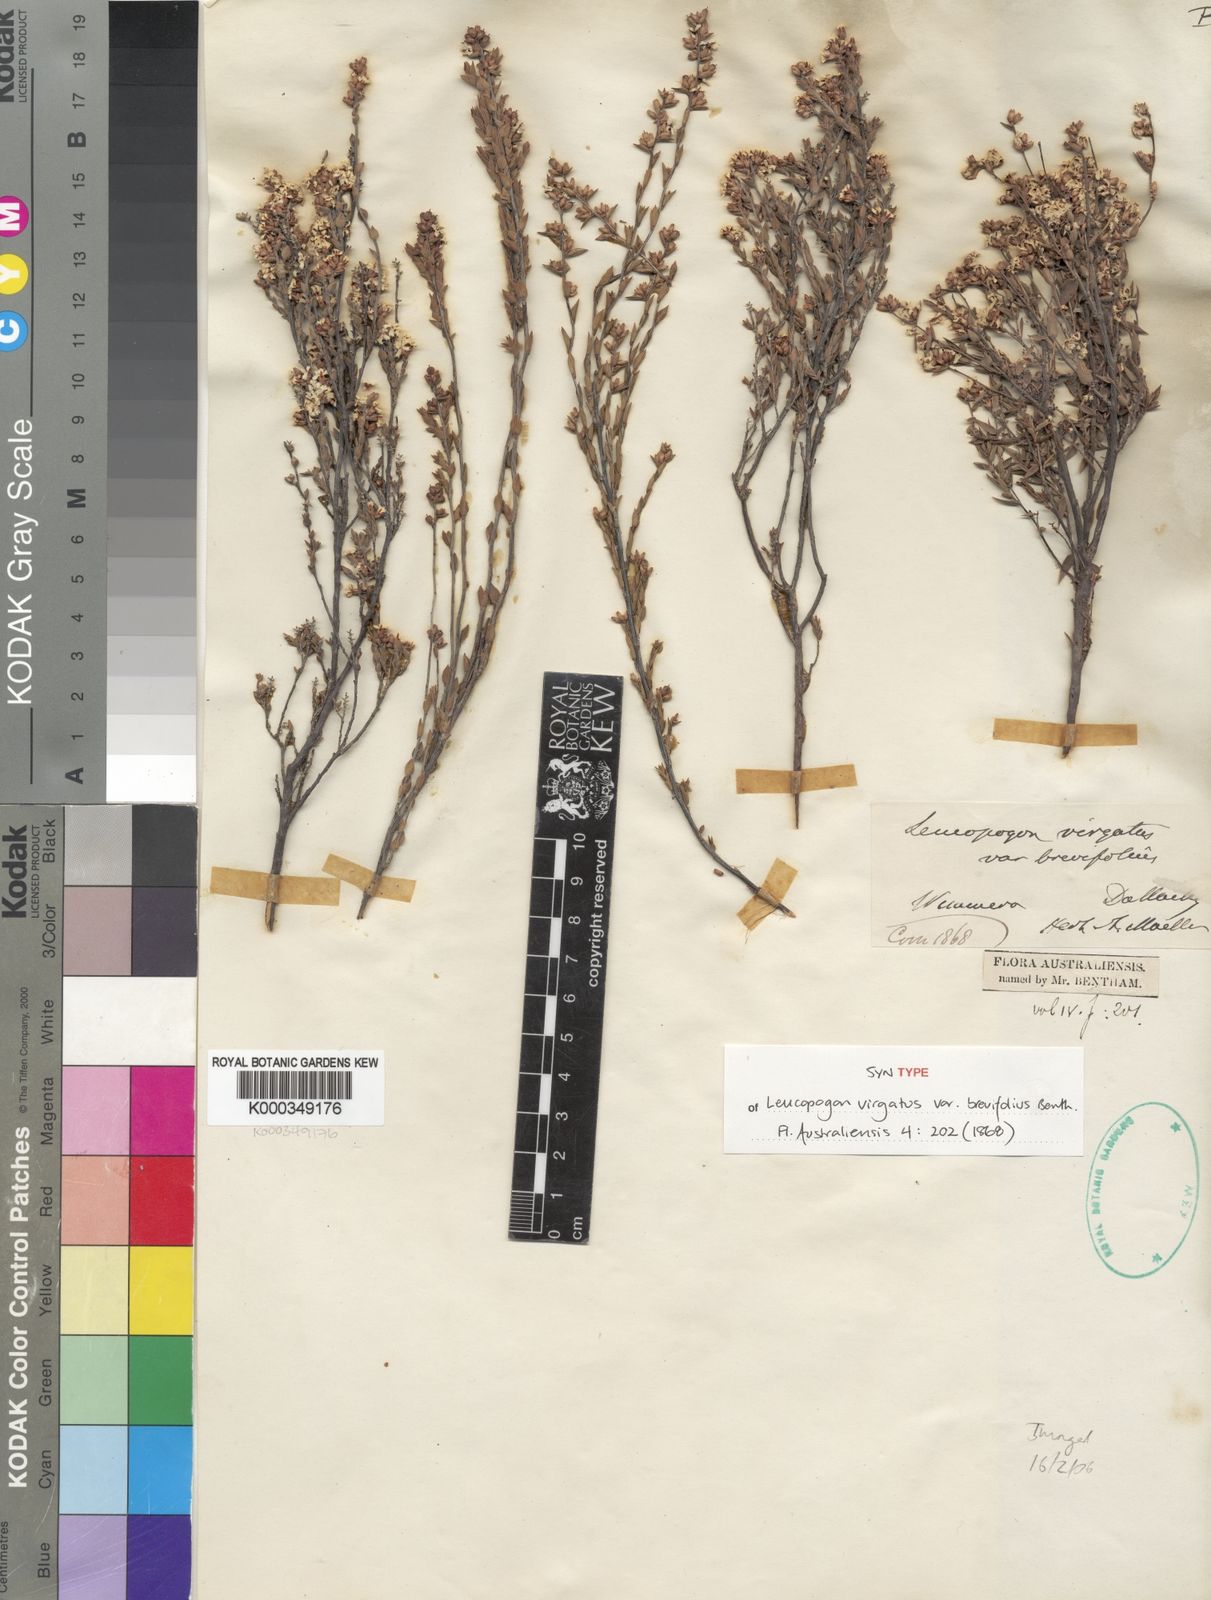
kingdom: Plantae
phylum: Tracheophyta
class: Magnoliopsida
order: Ericales
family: Ericaceae
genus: Leucopogon
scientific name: Leucopogon virgatus
